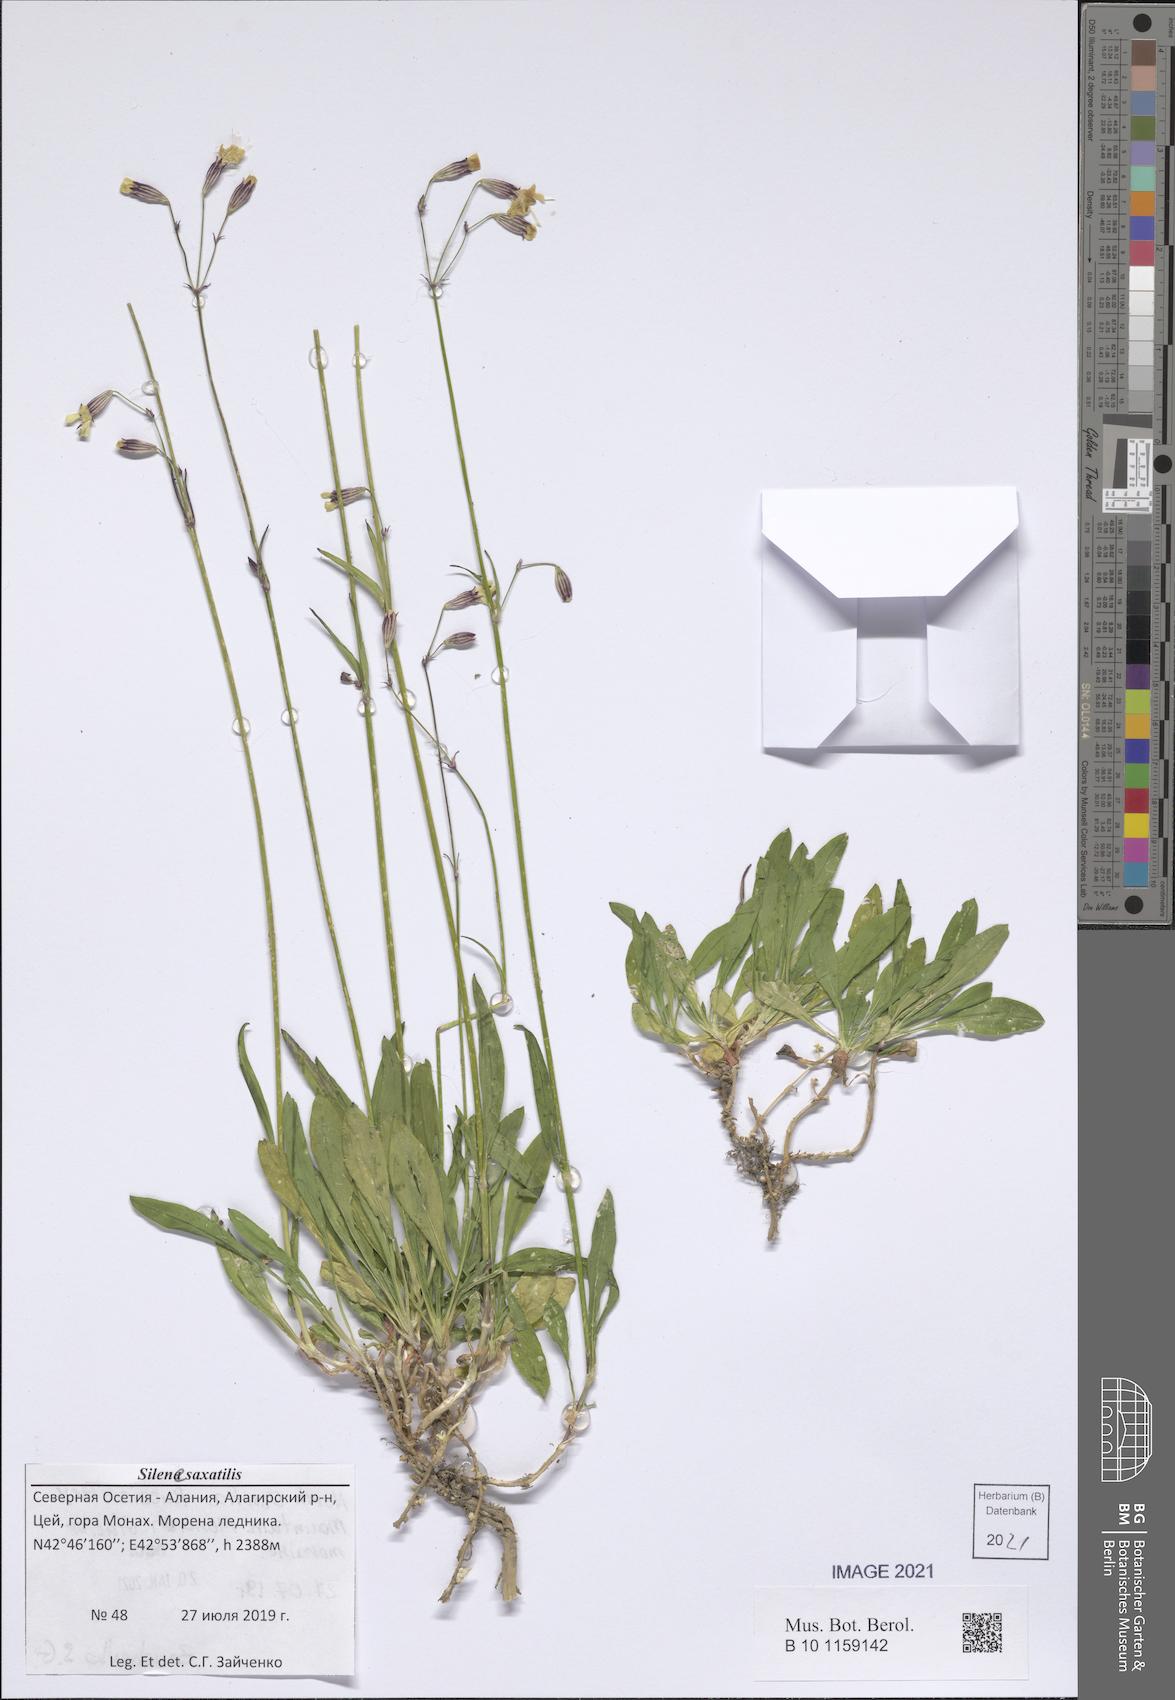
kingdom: Plantae
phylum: Tracheophyta
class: Magnoliopsida
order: Caryophyllales
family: Caryophyllaceae
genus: Silene
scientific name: Silene saxatilis
